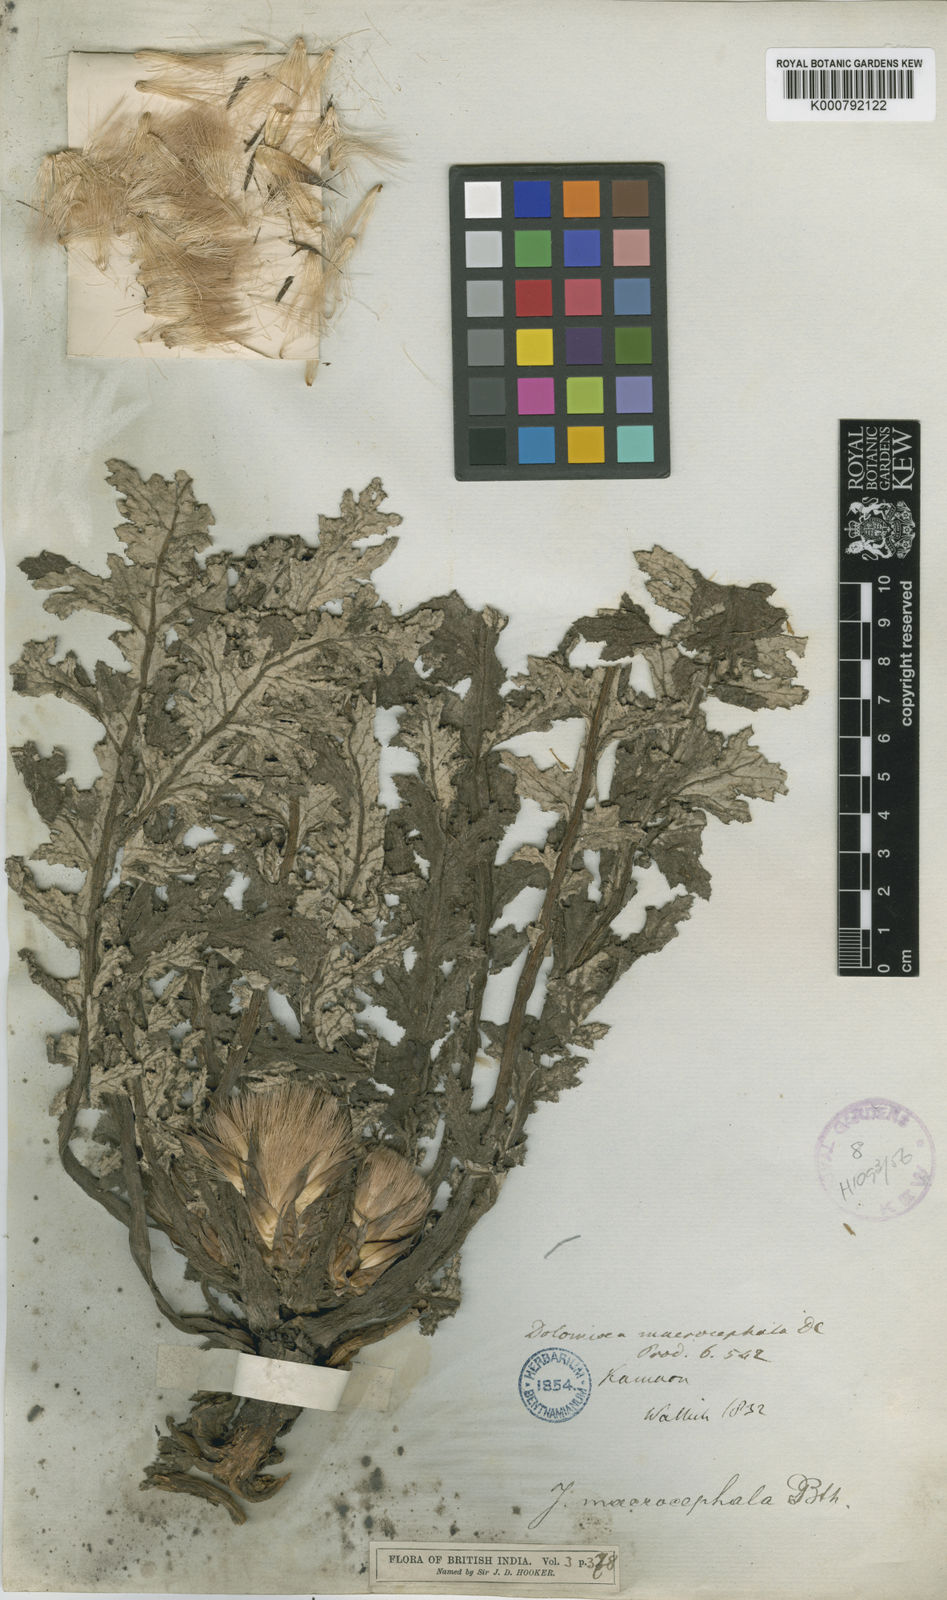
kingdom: Plantae
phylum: Tracheophyta
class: Magnoliopsida
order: Asterales
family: Asteraceae
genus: Dolomiaea
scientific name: Dolomiaea
